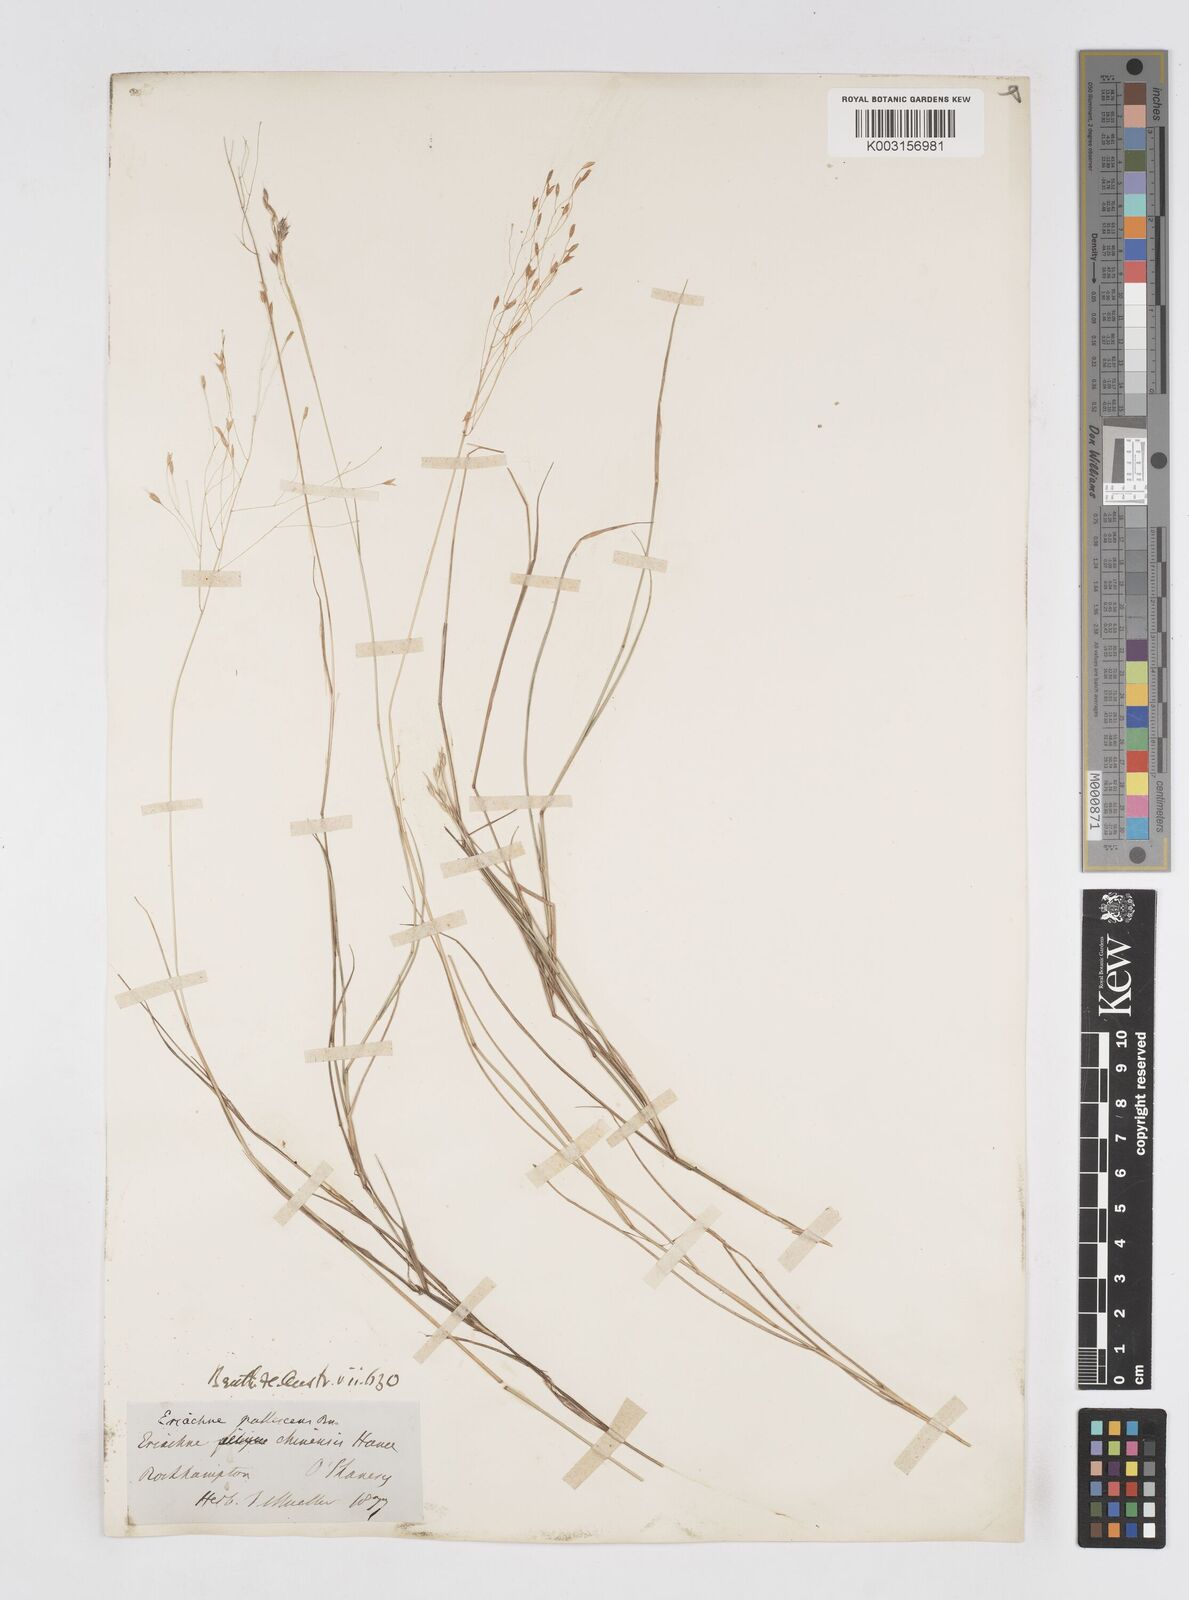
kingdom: Plantae
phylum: Tracheophyta
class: Liliopsida
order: Poales
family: Poaceae
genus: Eriachne
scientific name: Eriachne pallescens
